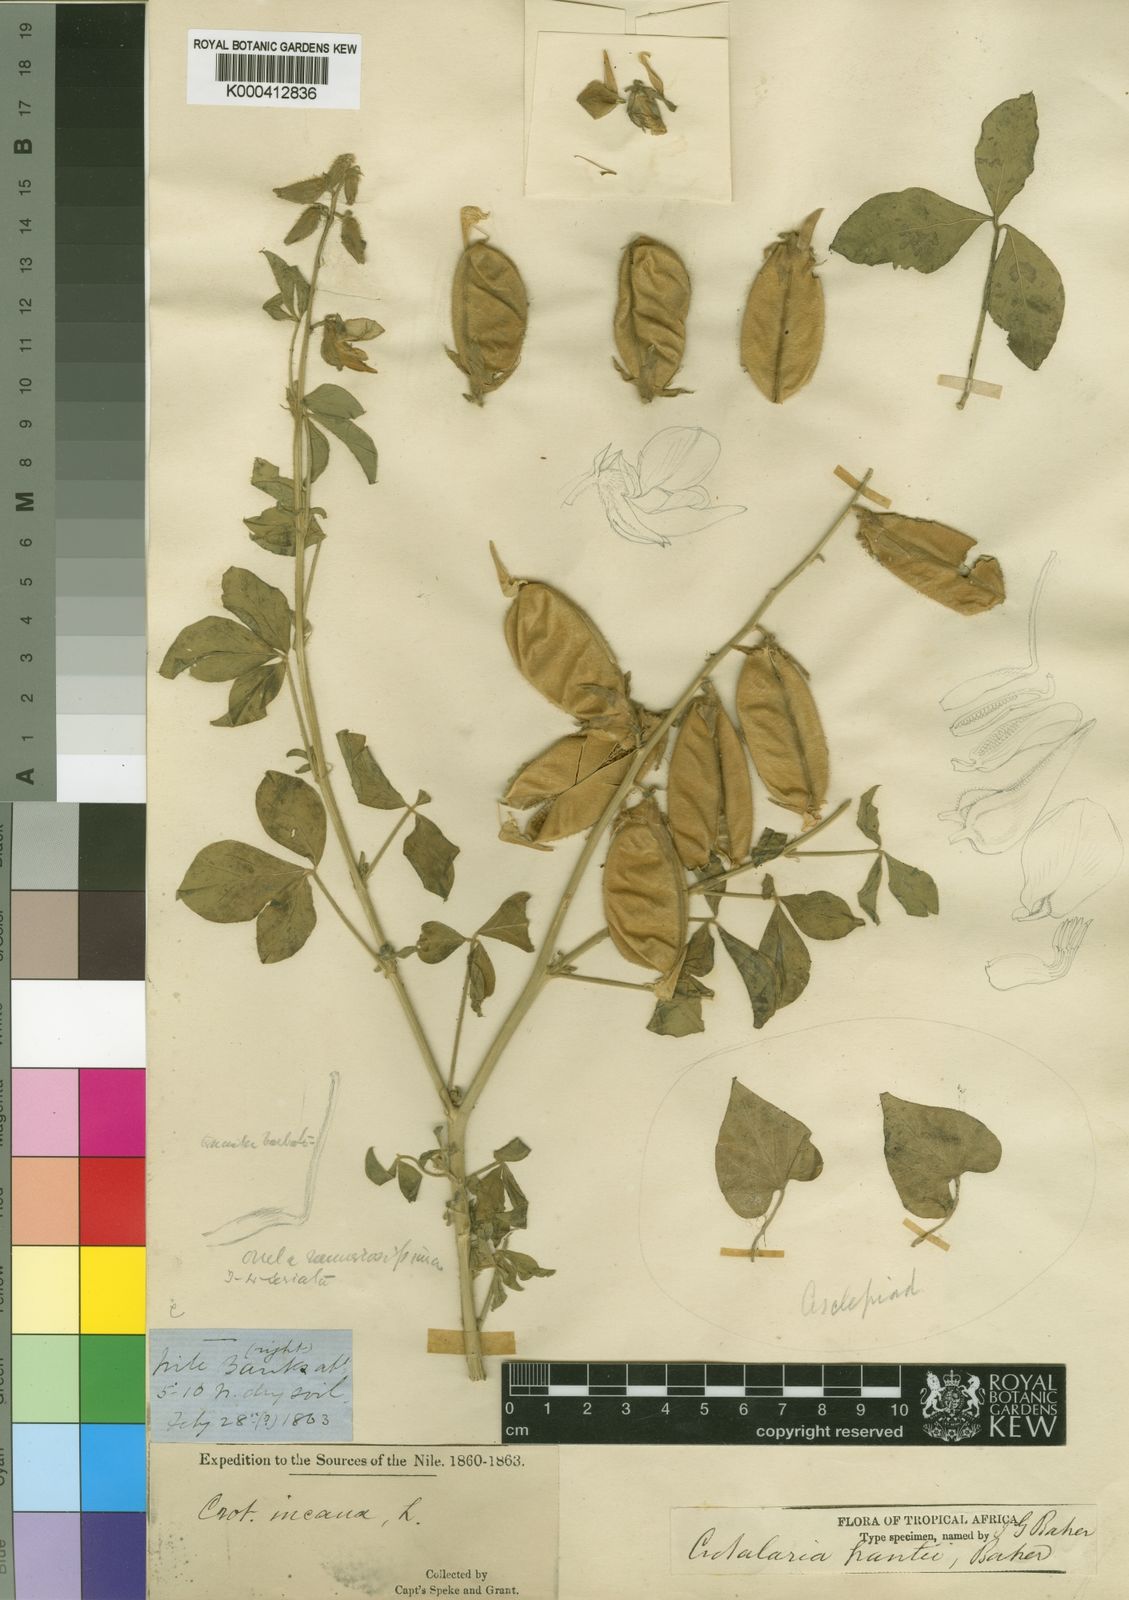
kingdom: Plantae
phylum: Tracheophyta
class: Magnoliopsida
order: Fabales
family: Fabaceae
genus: Crotalaria
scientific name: Crotalaria polysperma
